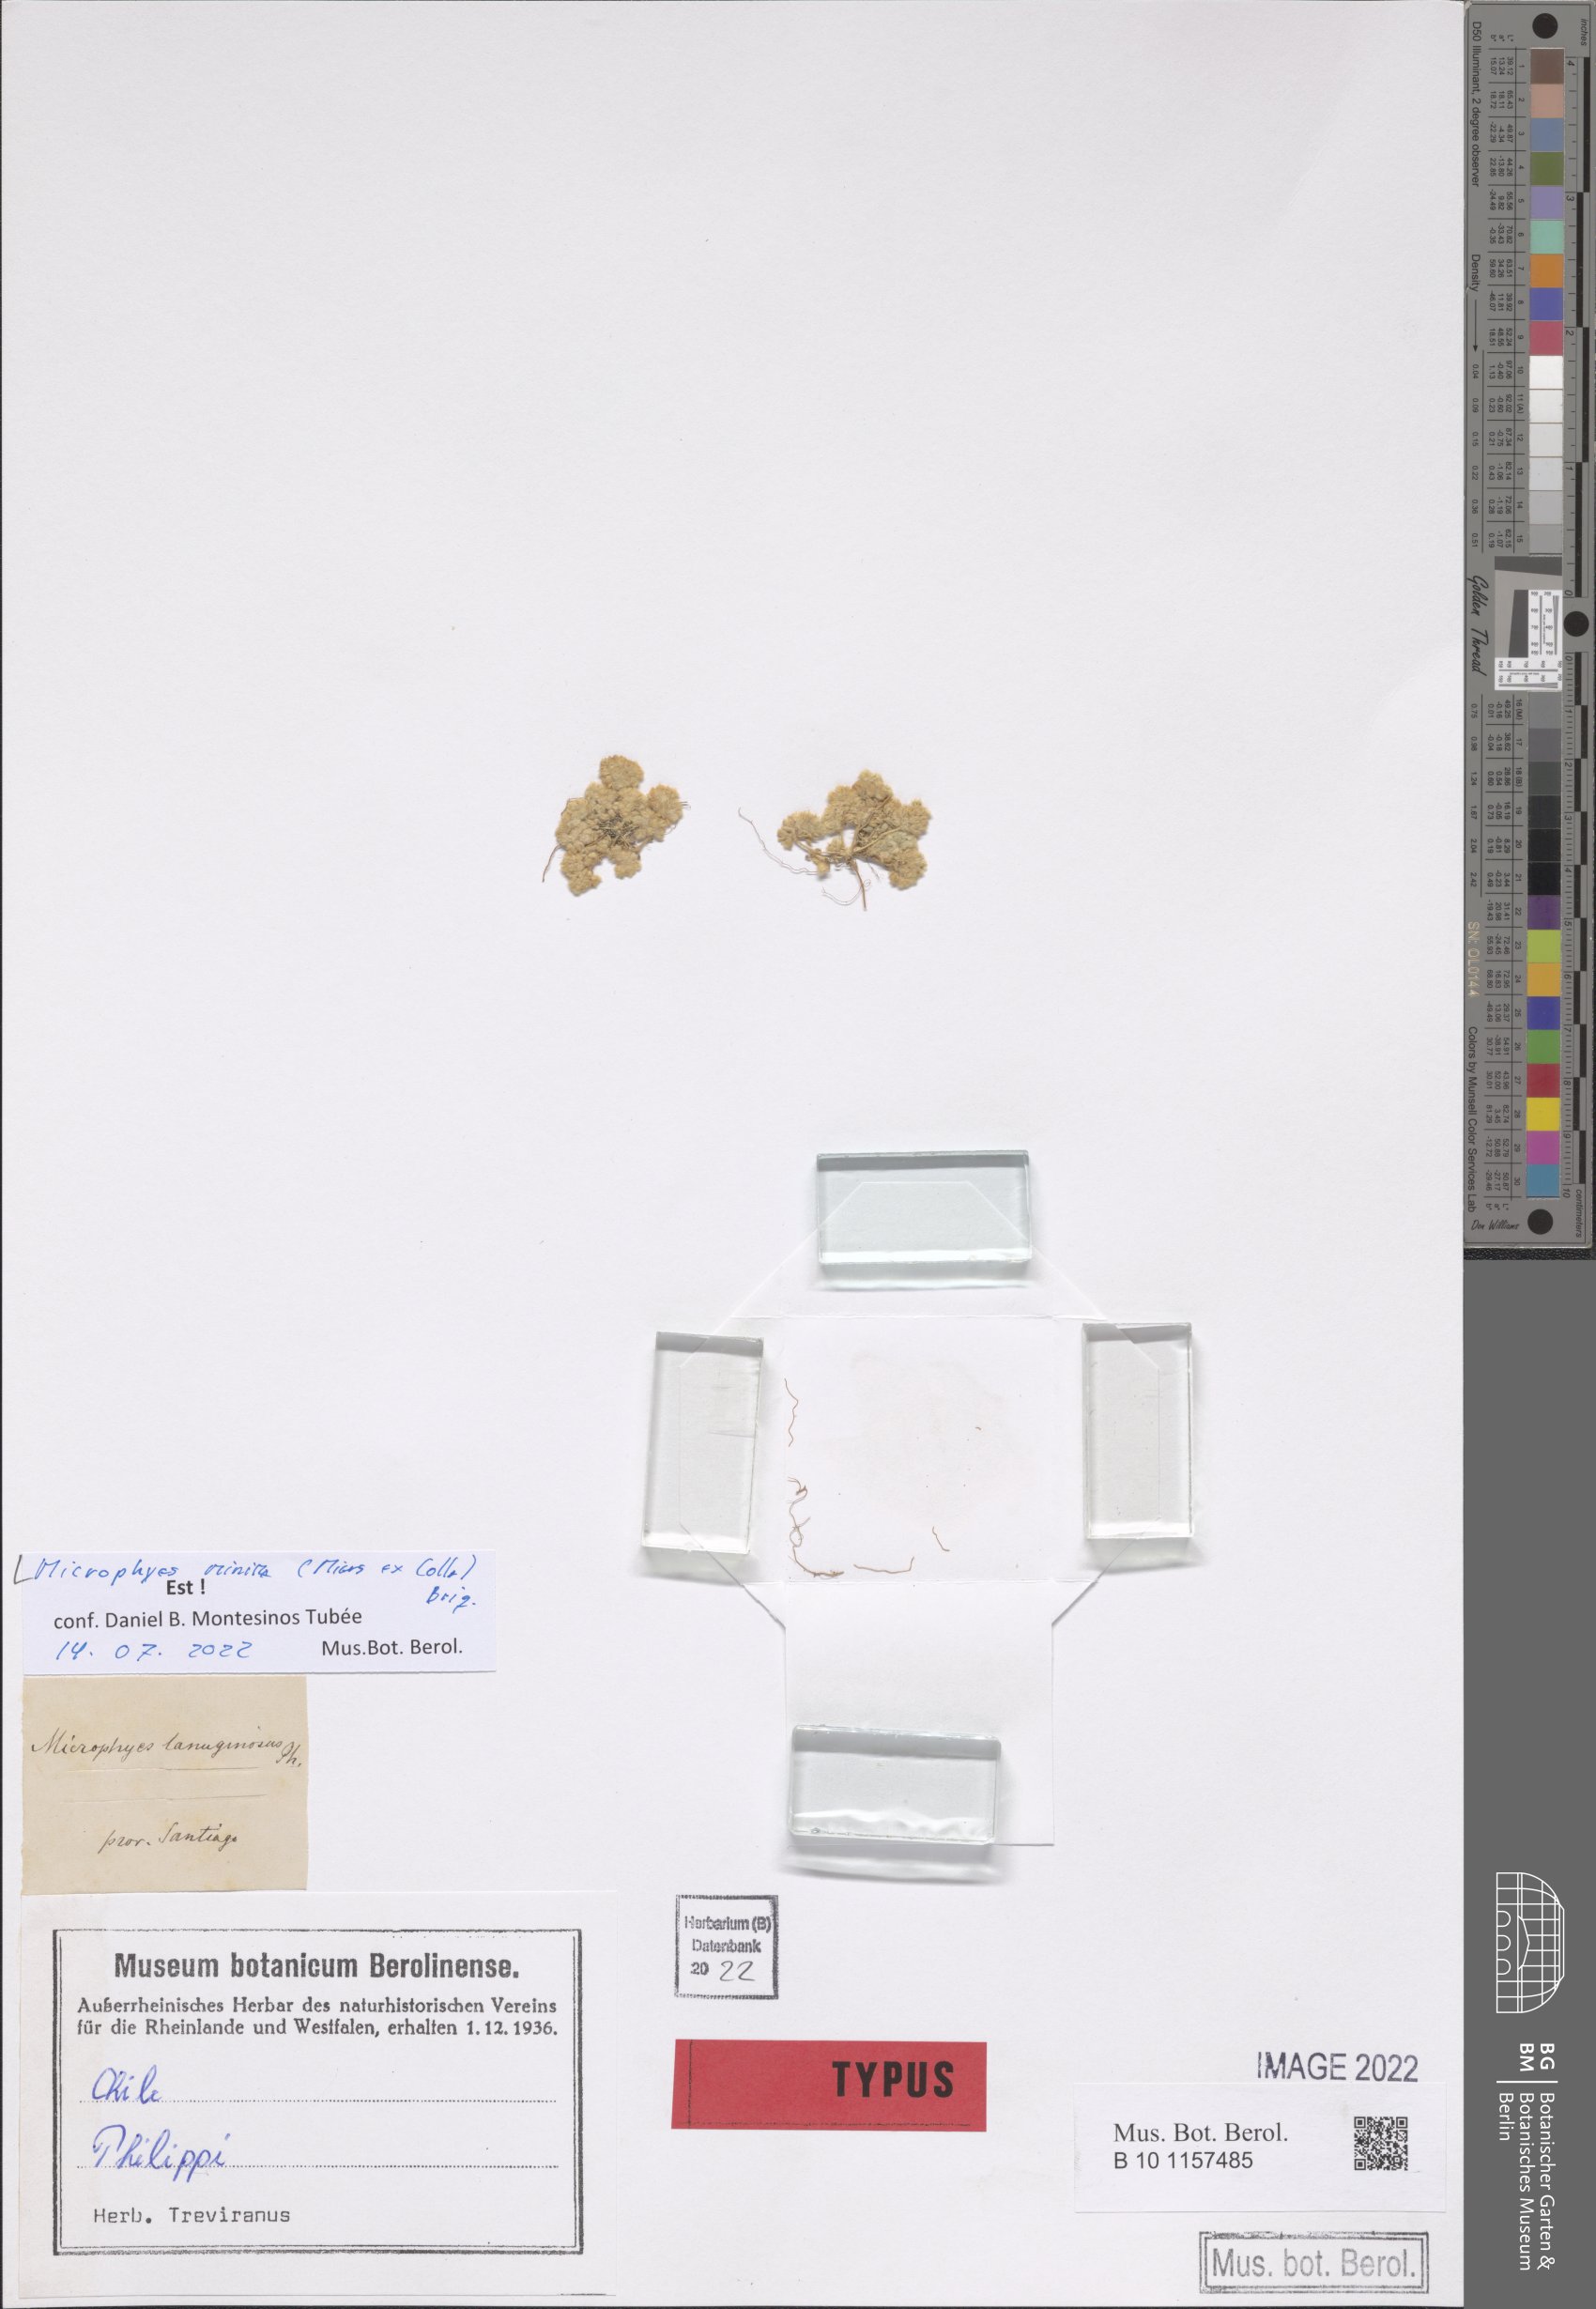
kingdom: Plantae
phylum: Tracheophyta
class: Magnoliopsida
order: Caryophyllales
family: Caryophyllaceae
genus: Microphyes
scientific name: Microphyes minima
